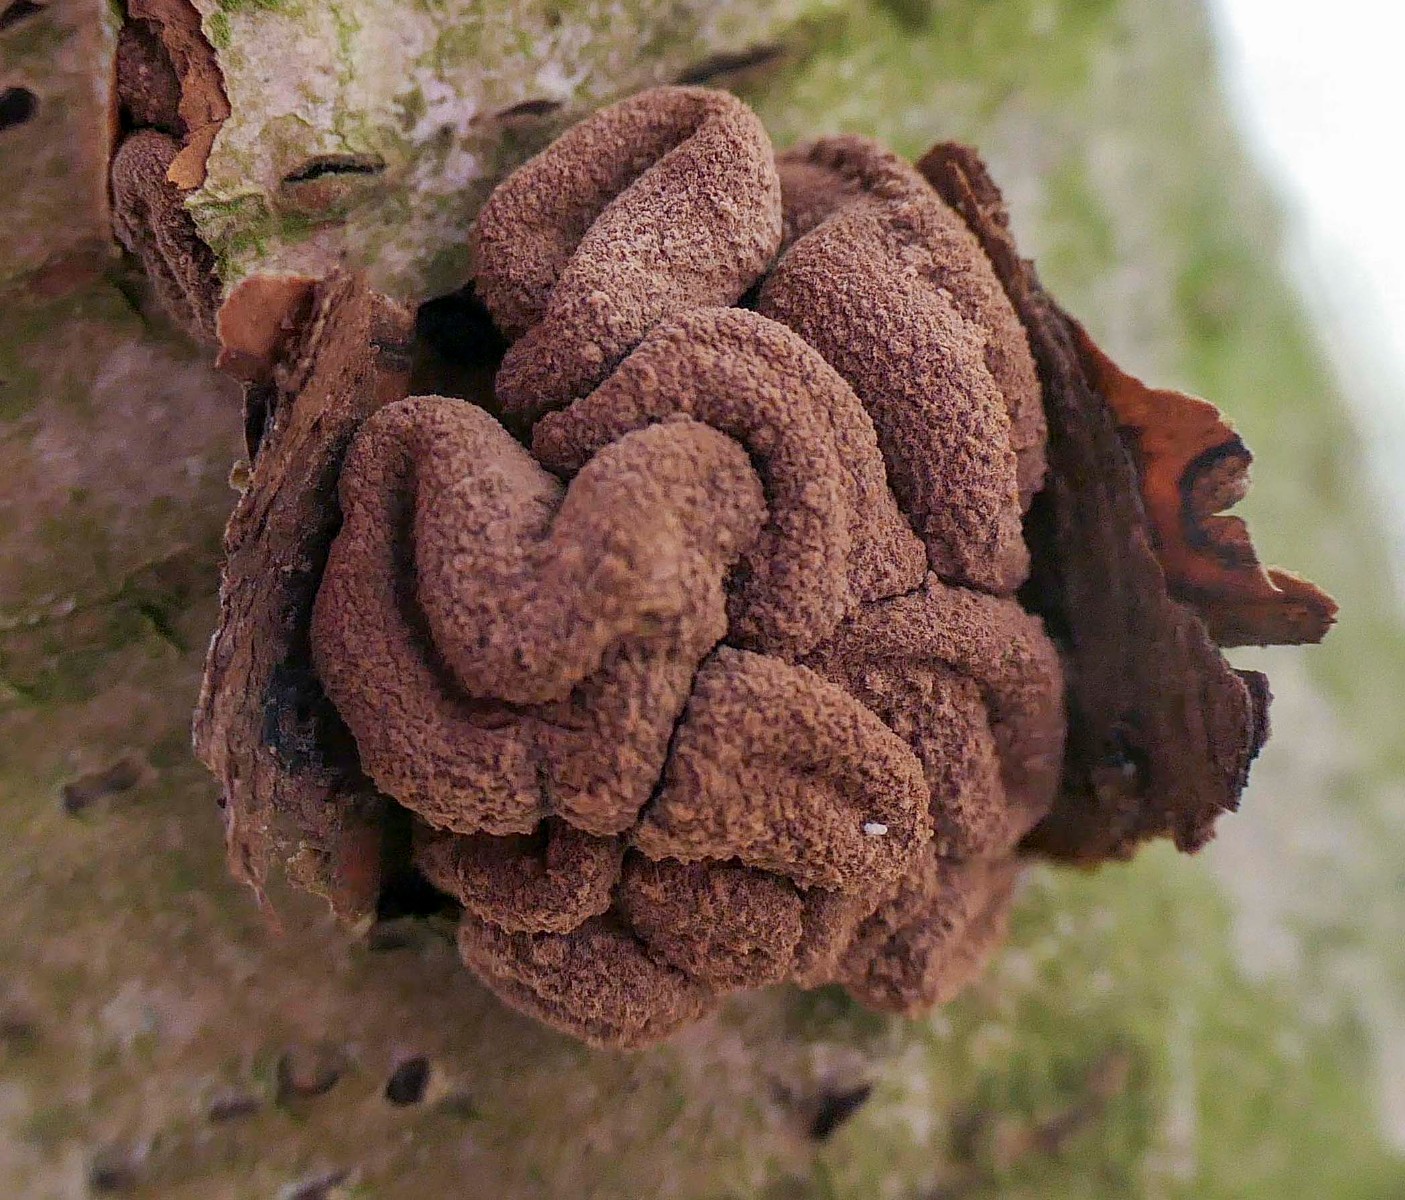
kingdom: Fungi
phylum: Ascomycota
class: Leotiomycetes
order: Helotiales
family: Cenangiaceae
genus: Encoelia
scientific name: Encoelia furfuracea
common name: hassel-læderskive
